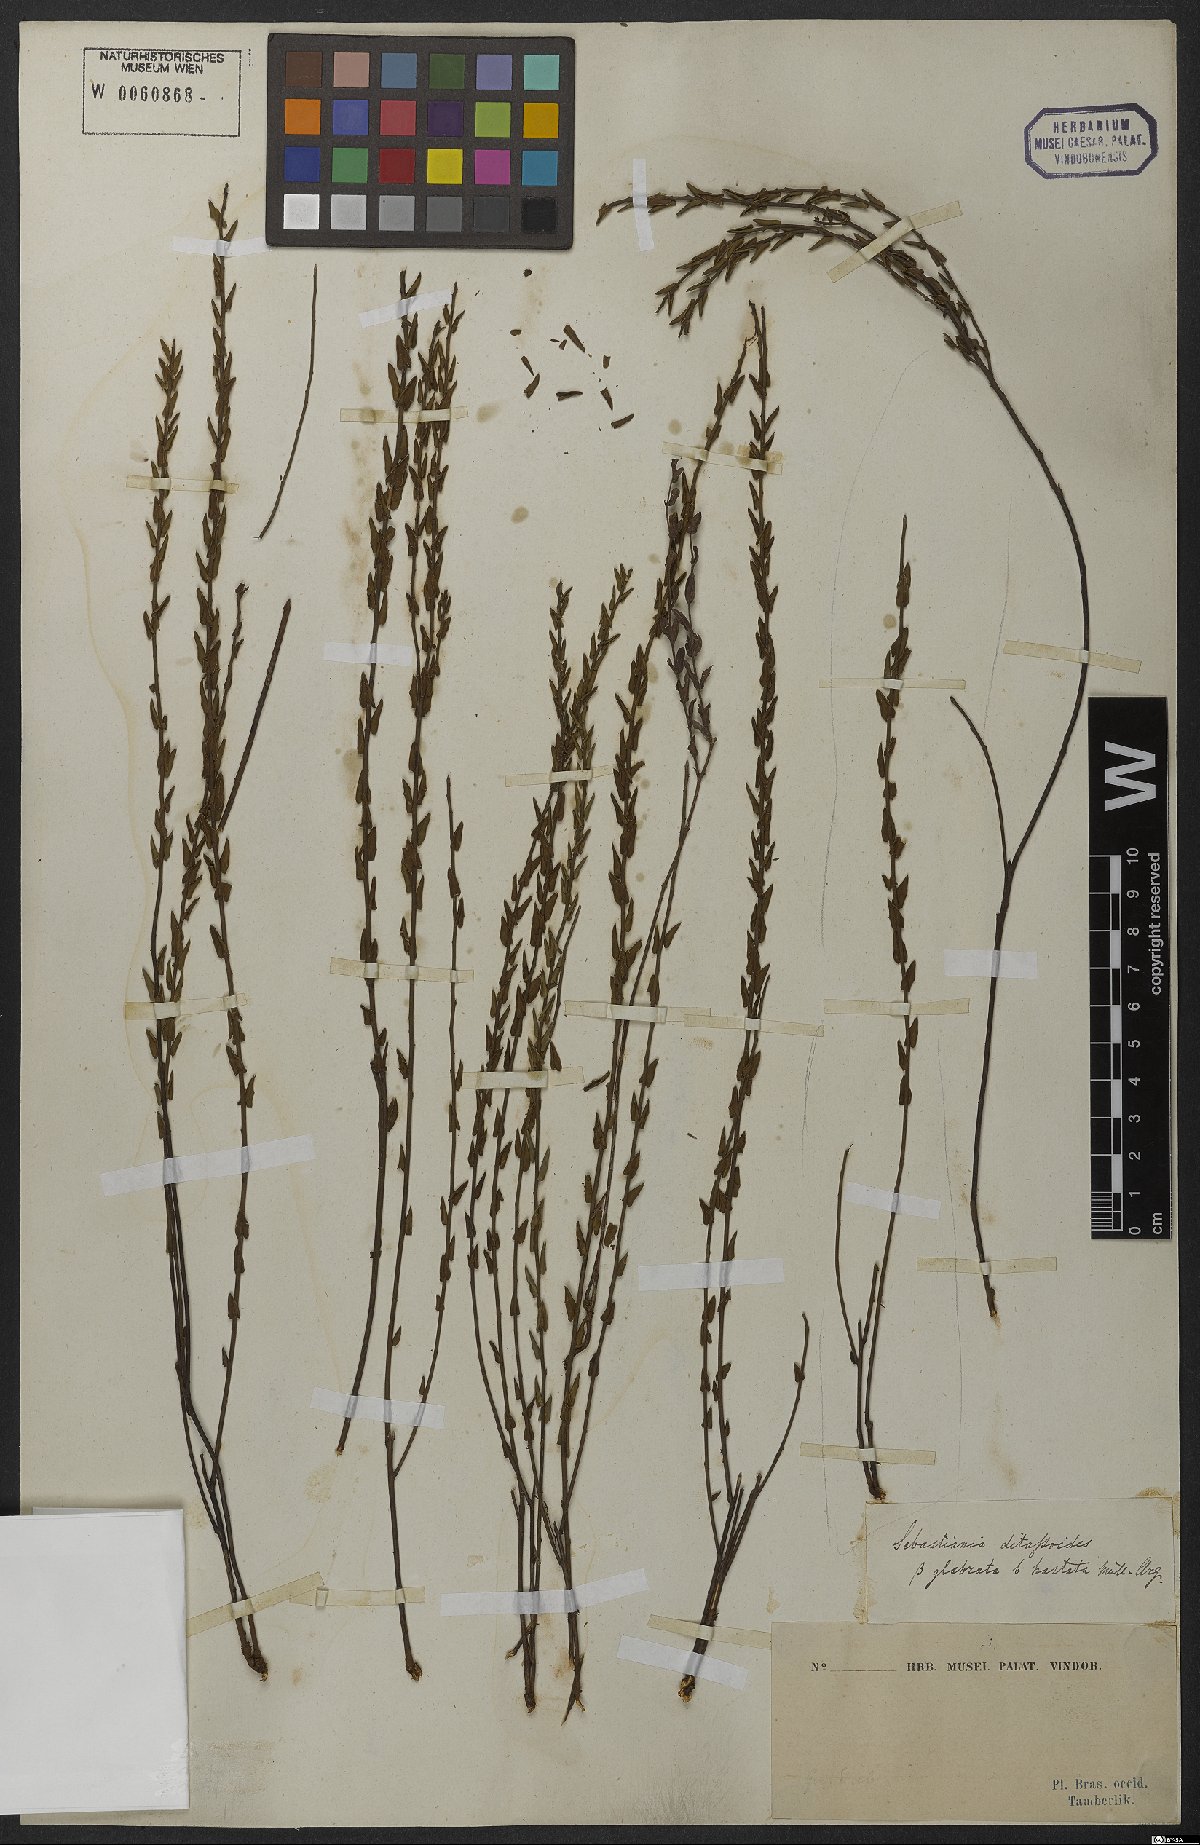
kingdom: Plantae
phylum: Tracheophyta
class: Magnoliopsida
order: Malpighiales
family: Euphorbiaceae
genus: Microstachys
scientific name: Microstachys ditassoides
